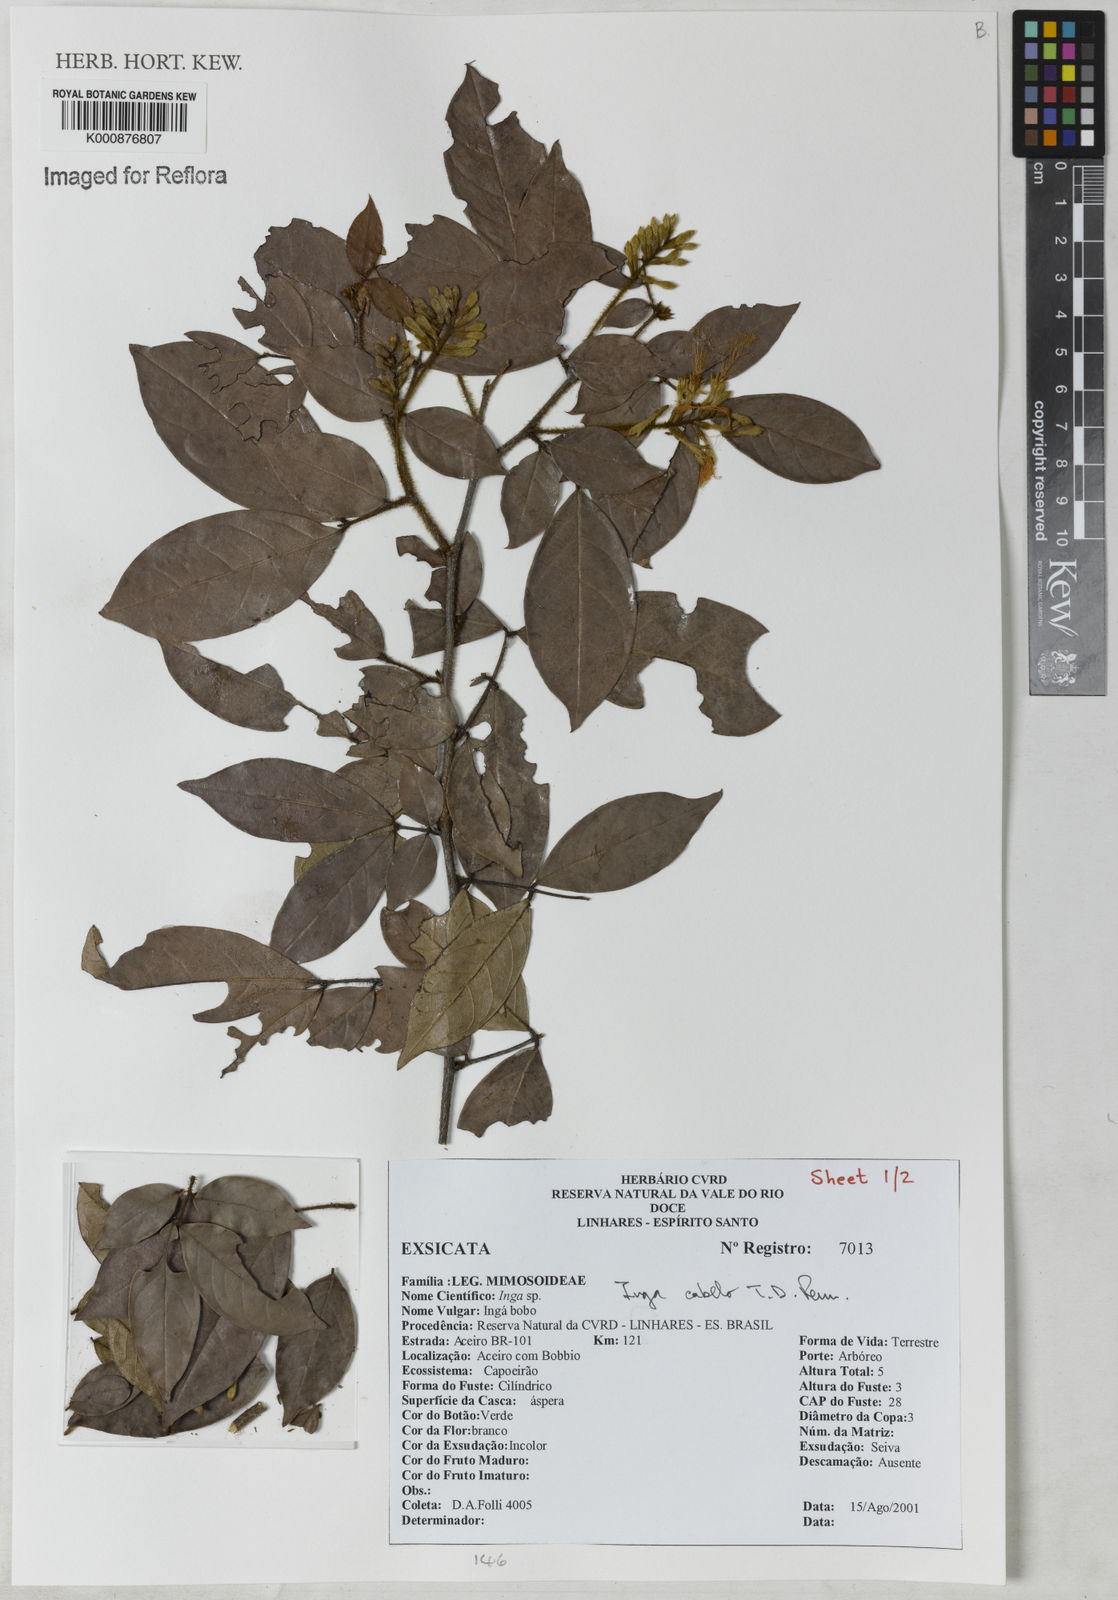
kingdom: Plantae
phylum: Tracheophyta
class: Magnoliopsida
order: Fabales
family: Fabaceae
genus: Inga
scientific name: Inga cabelo
